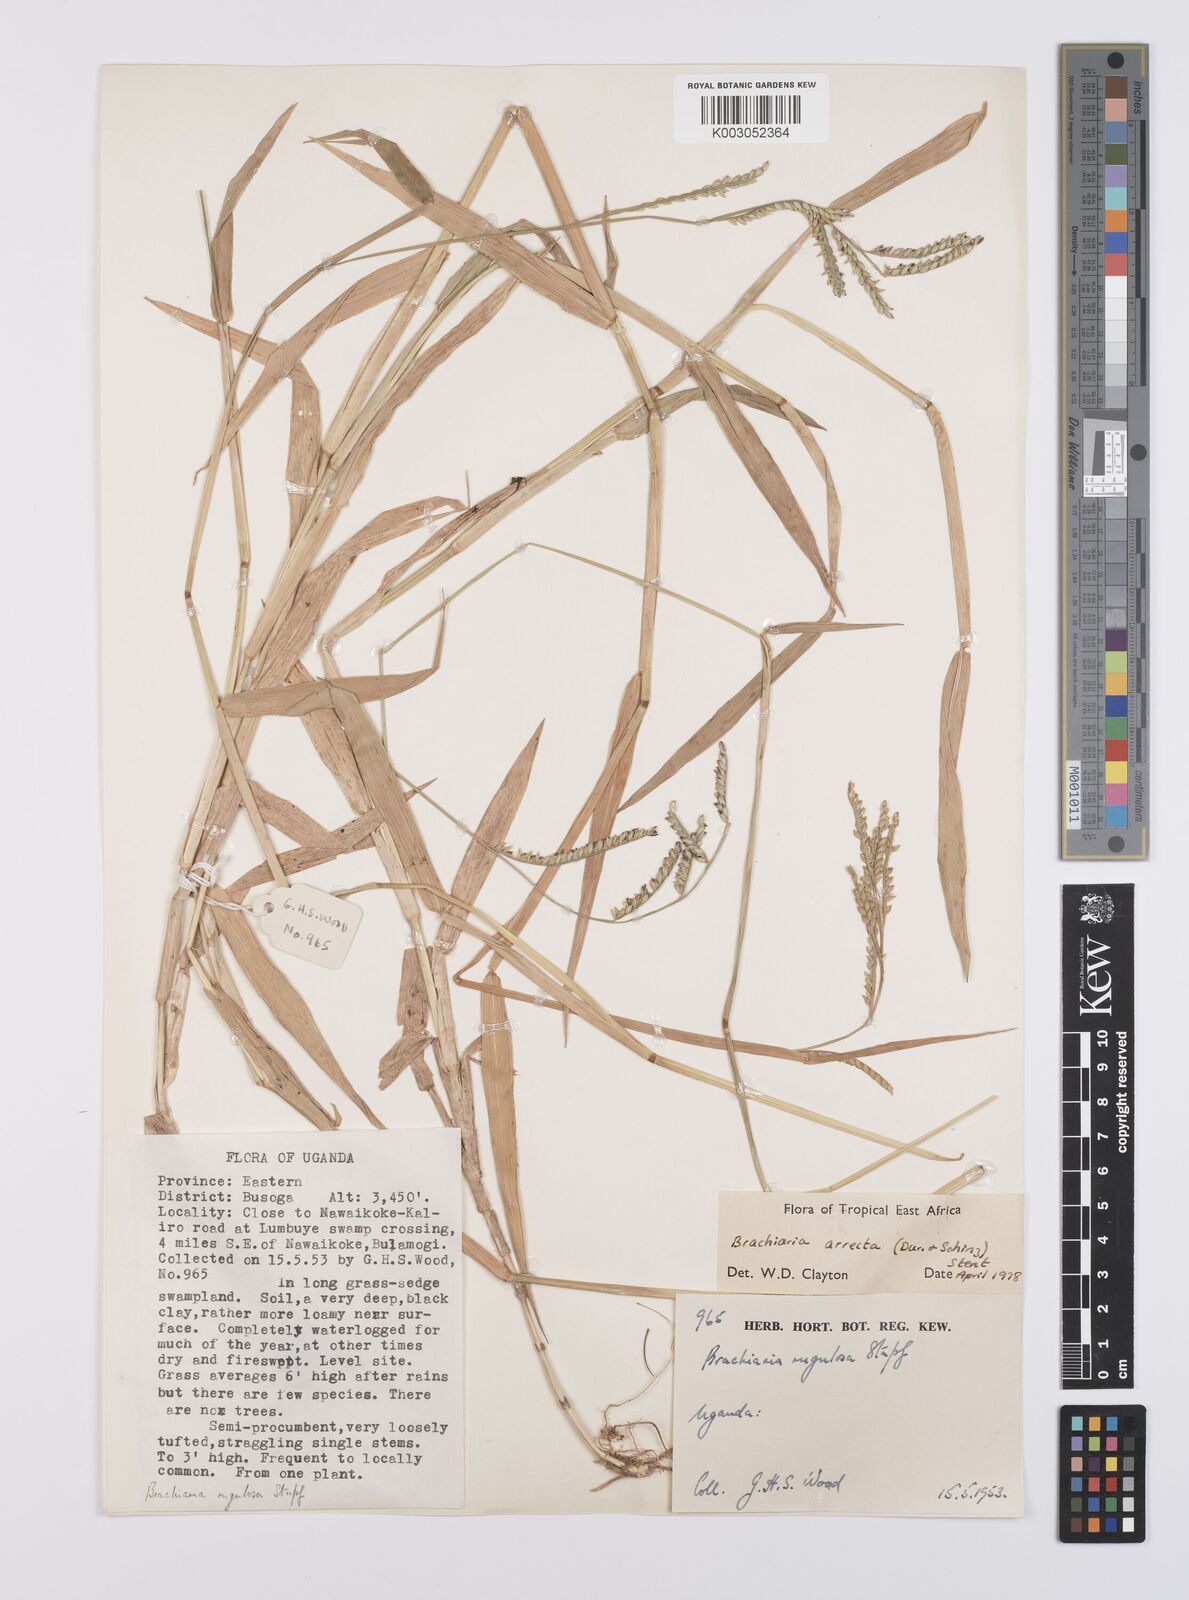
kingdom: Plantae
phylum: Tracheophyta
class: Liliopsida
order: Poales
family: Poaceae
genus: Urochloa
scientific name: Urochloa arrecta
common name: African signalgrass
